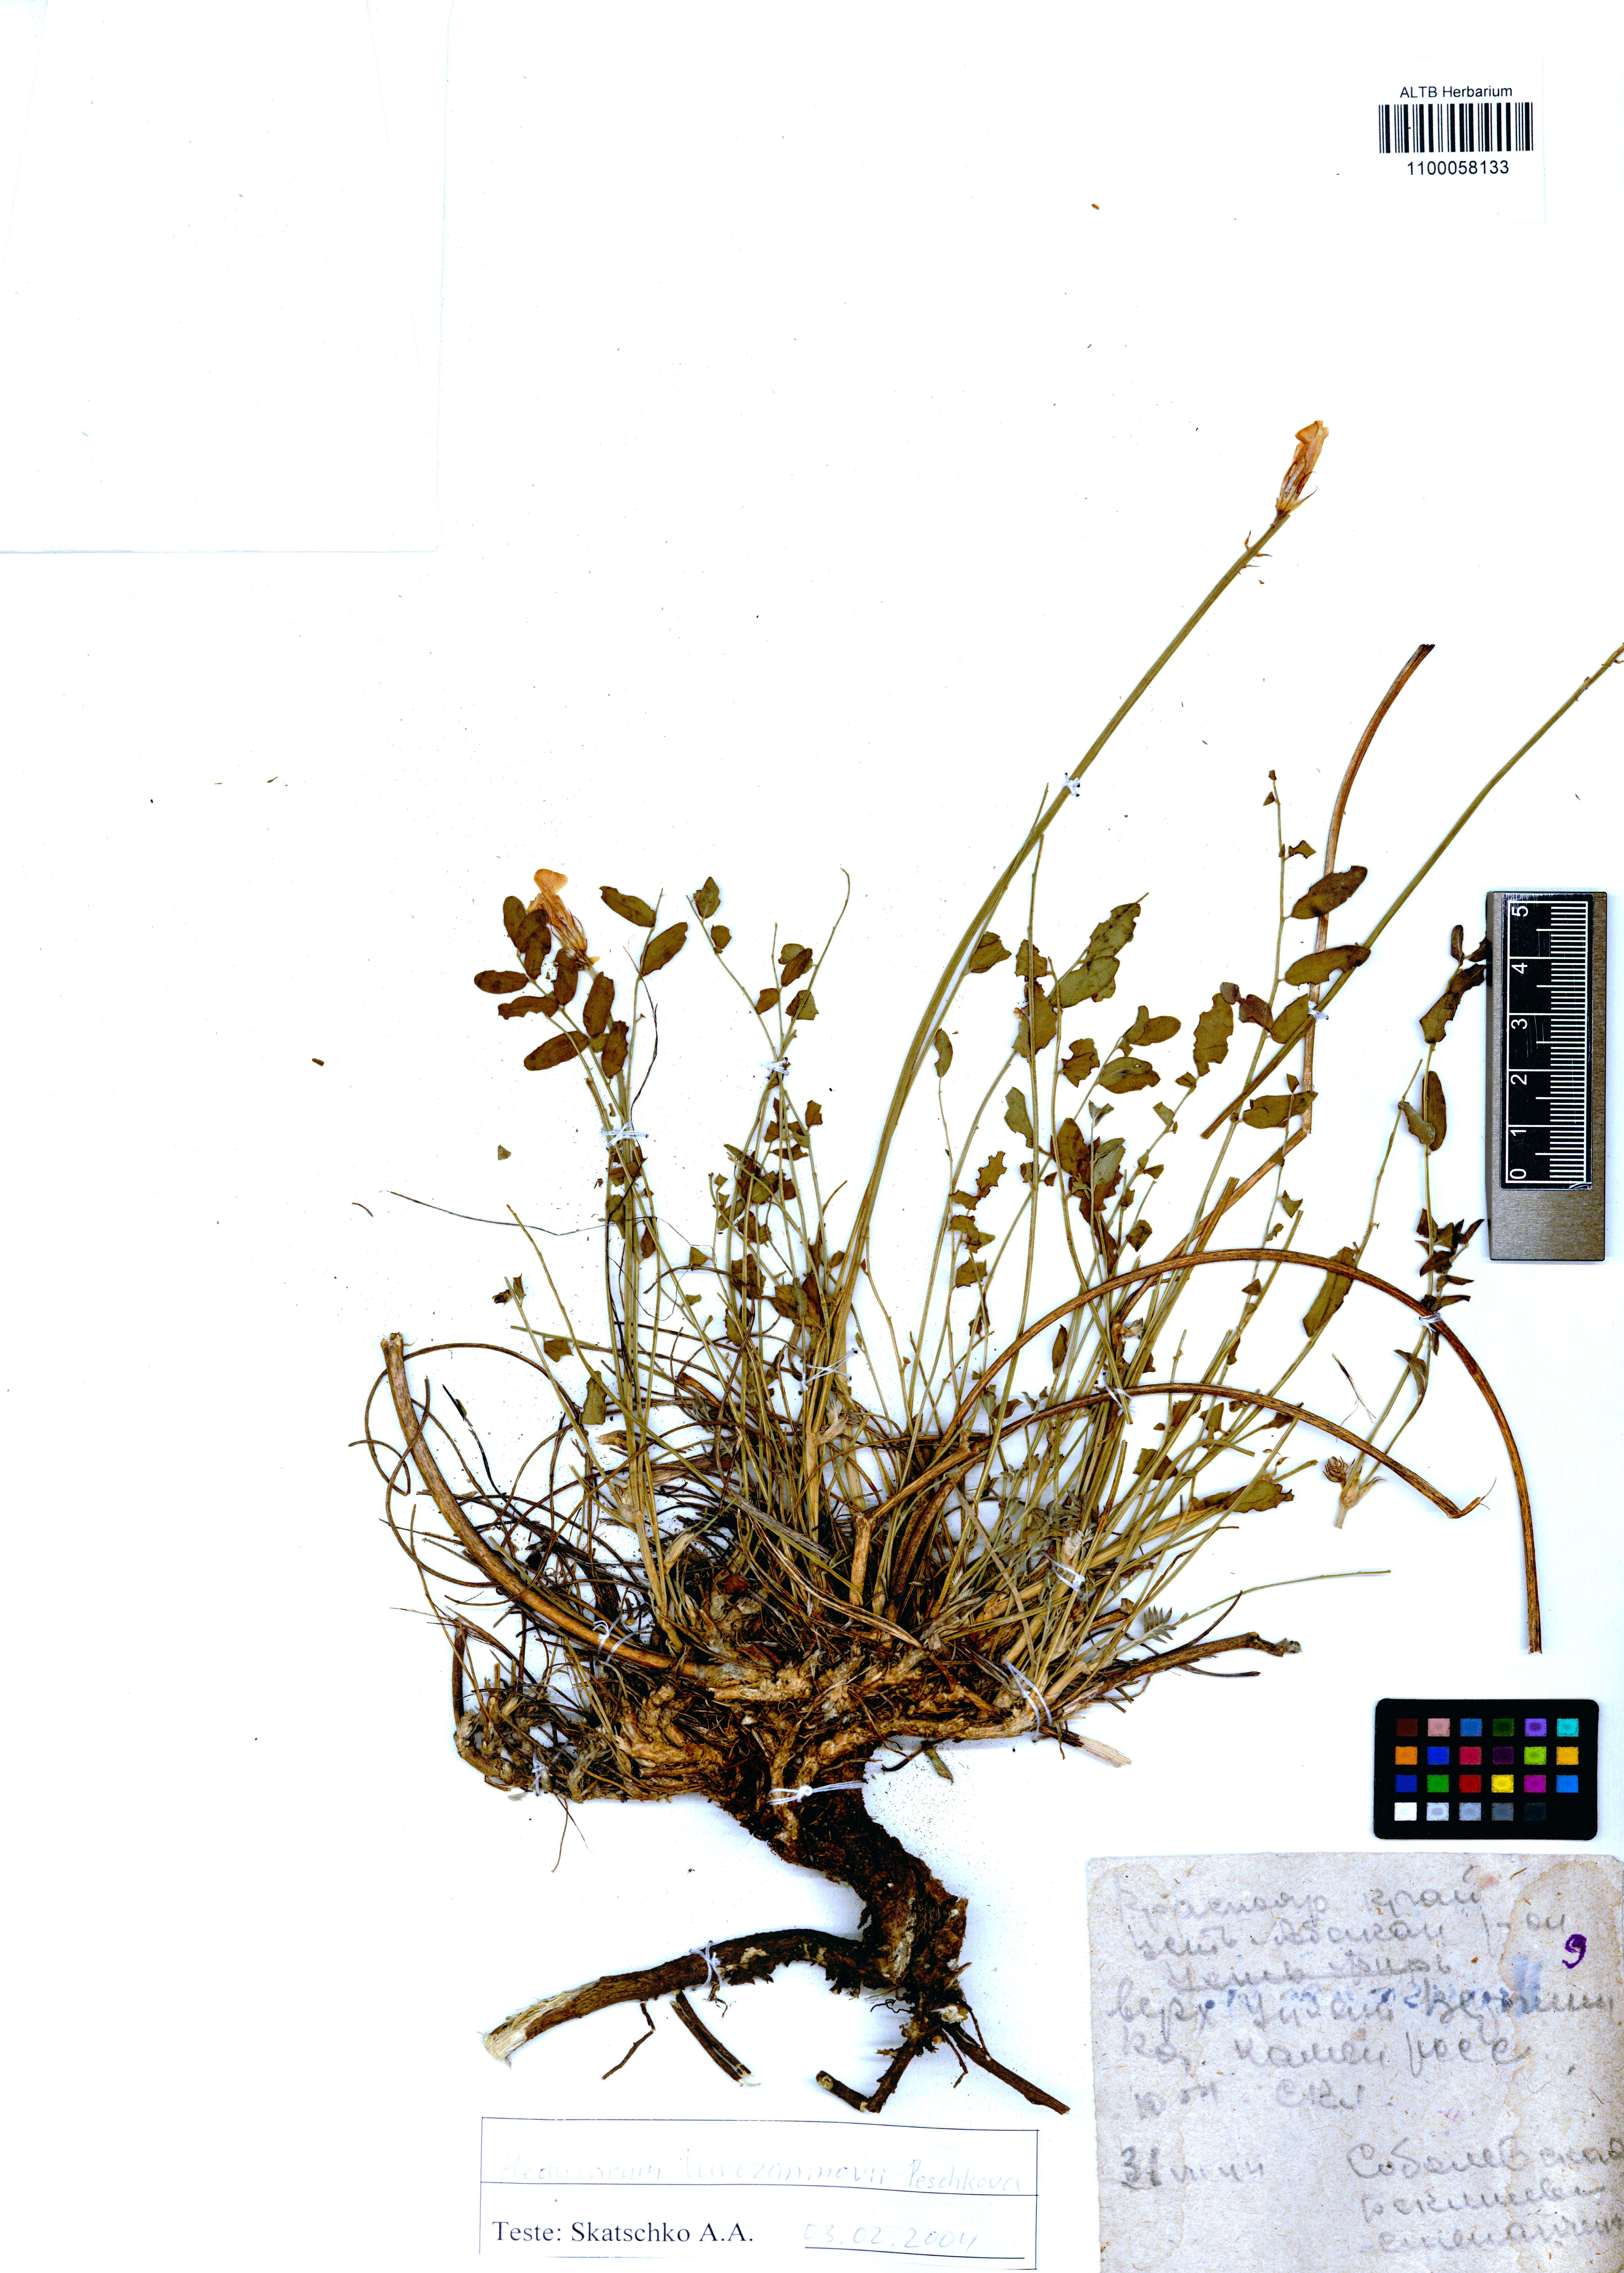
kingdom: Plantae
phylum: Tracheophyta
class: Magnoliopsida
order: Fabales
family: Fabaceae
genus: Hedysarum
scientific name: Hedysarum turczaninovii
